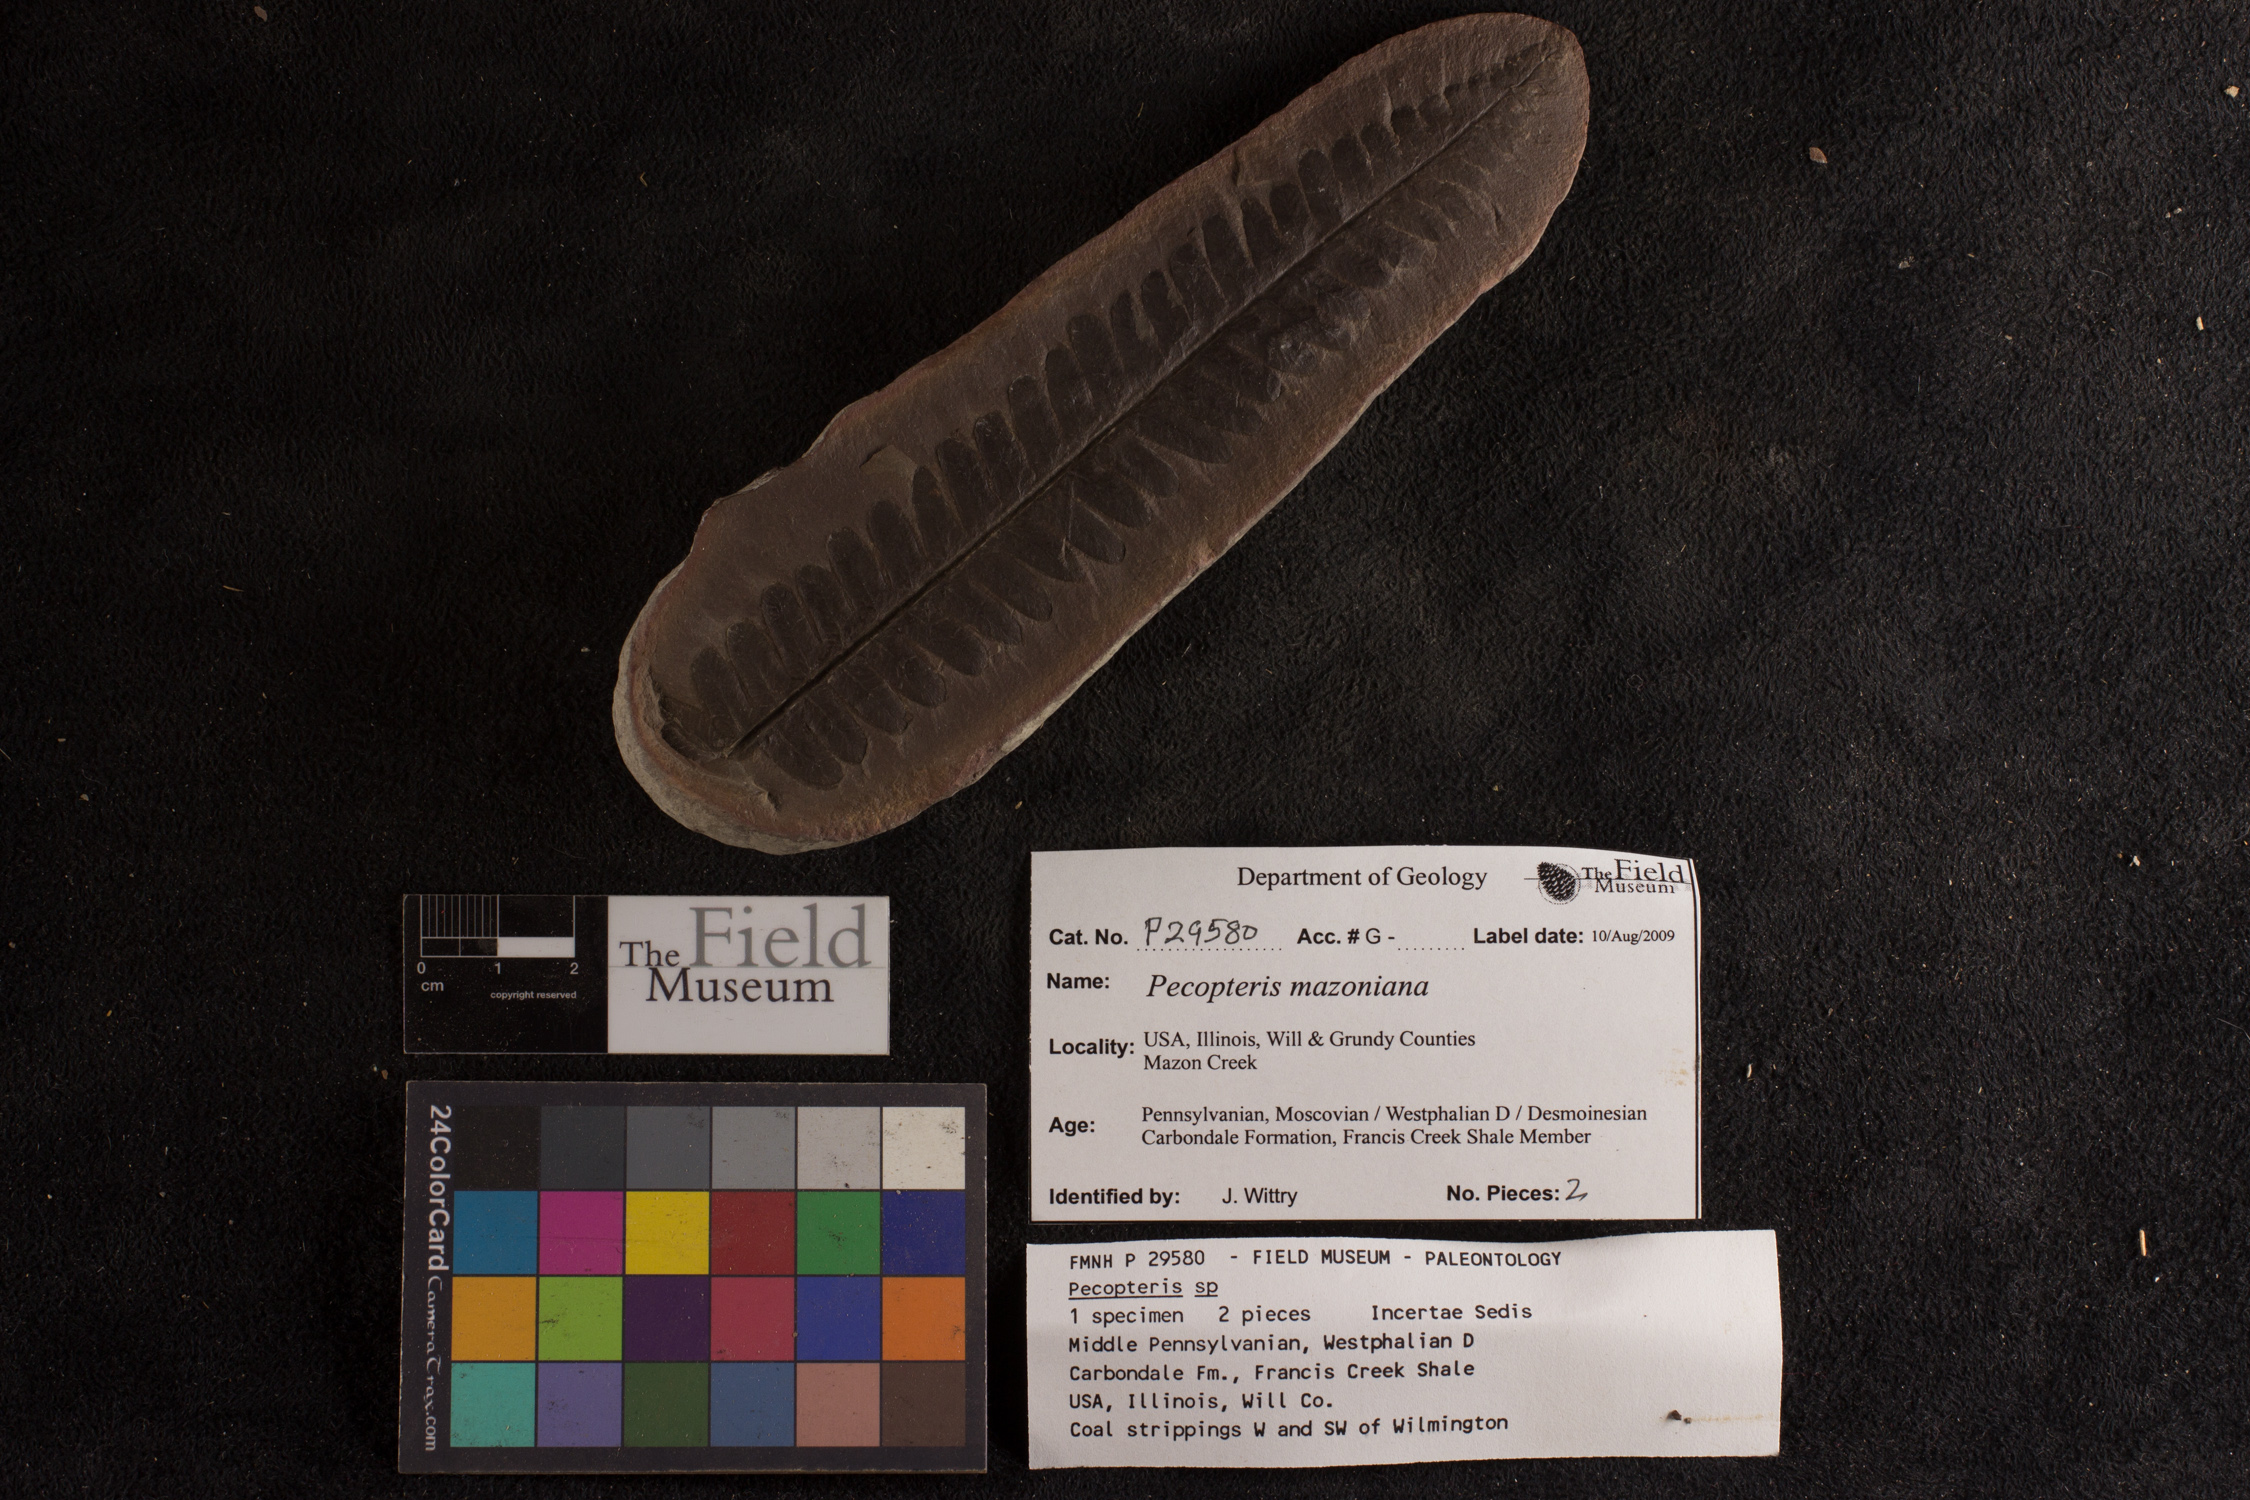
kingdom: Plantae
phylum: Tracheophyta
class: Polypodiopsida
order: Marattiales
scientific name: Marattiales
